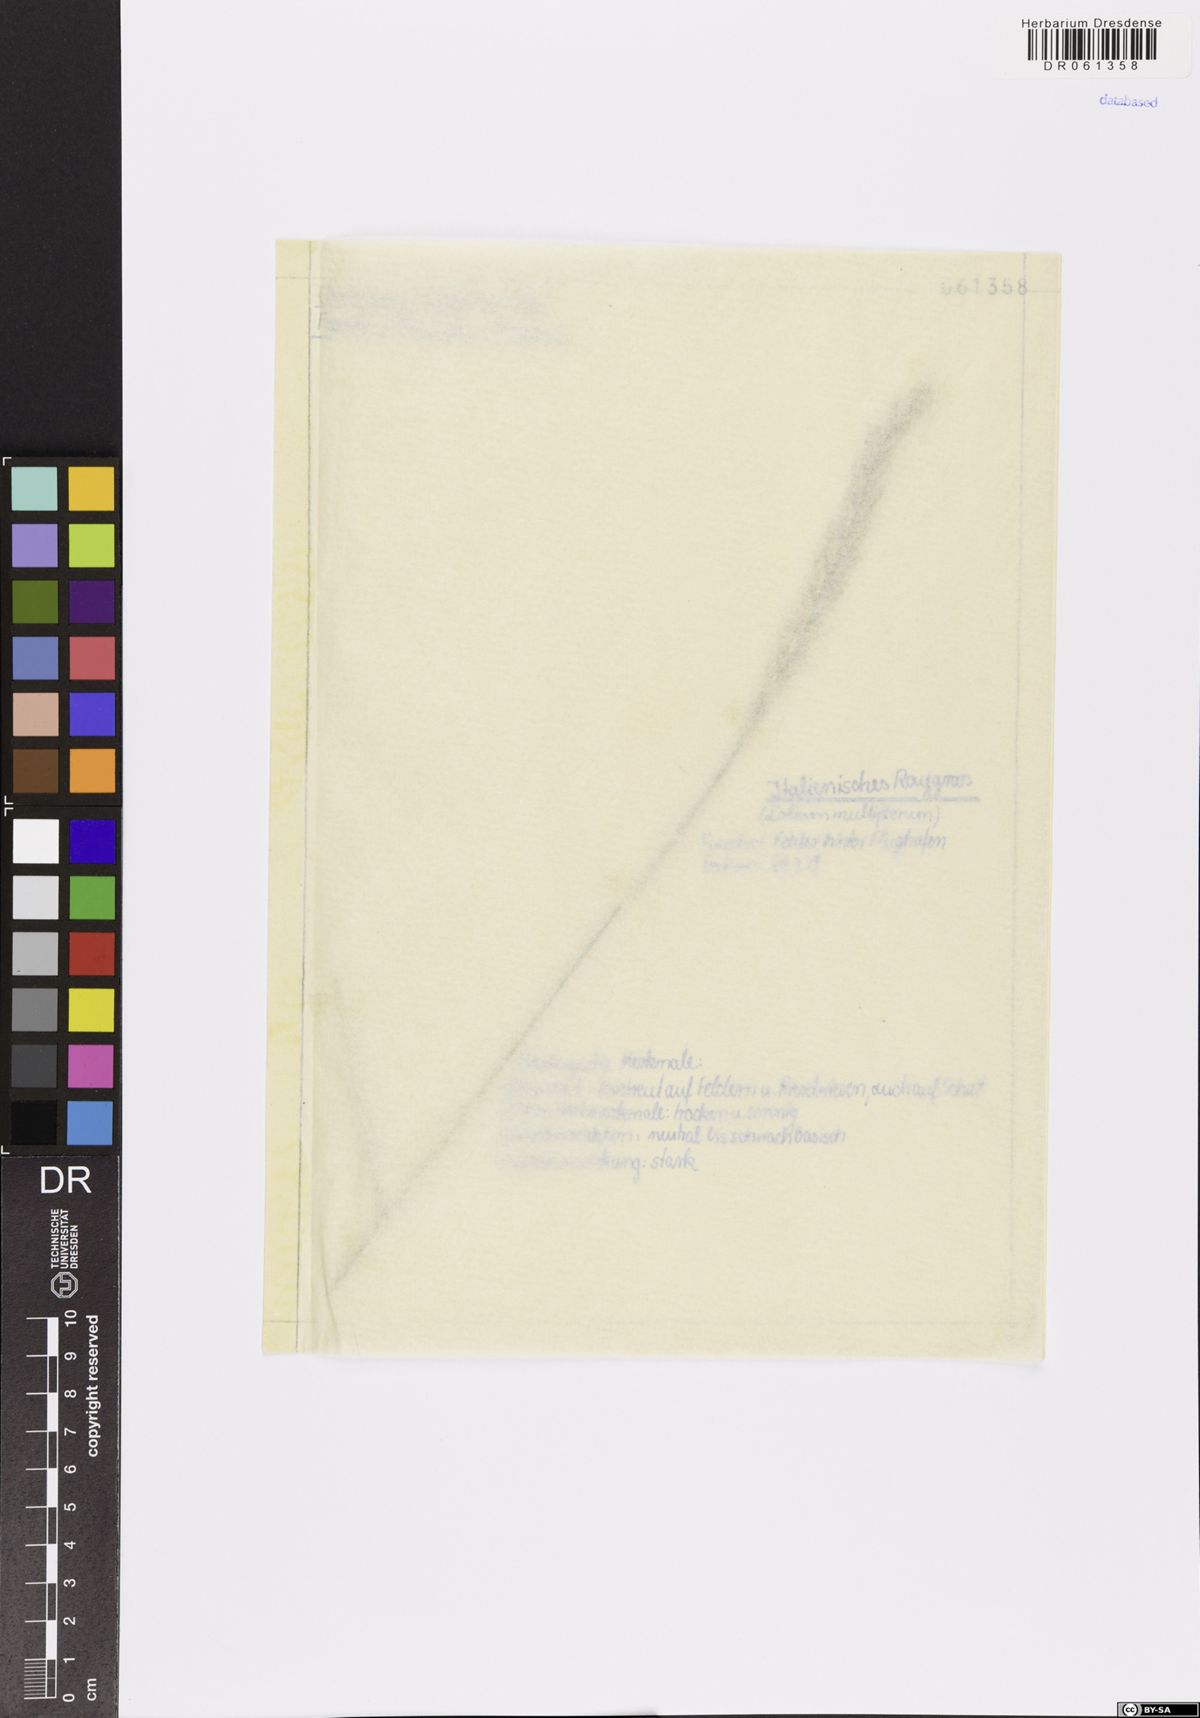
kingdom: Plantae
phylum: Tracheophyta
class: Liliopsida
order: Poales
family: Poaceae
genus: Lolium
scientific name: Lolium multiflorum
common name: Annual ryegrass
